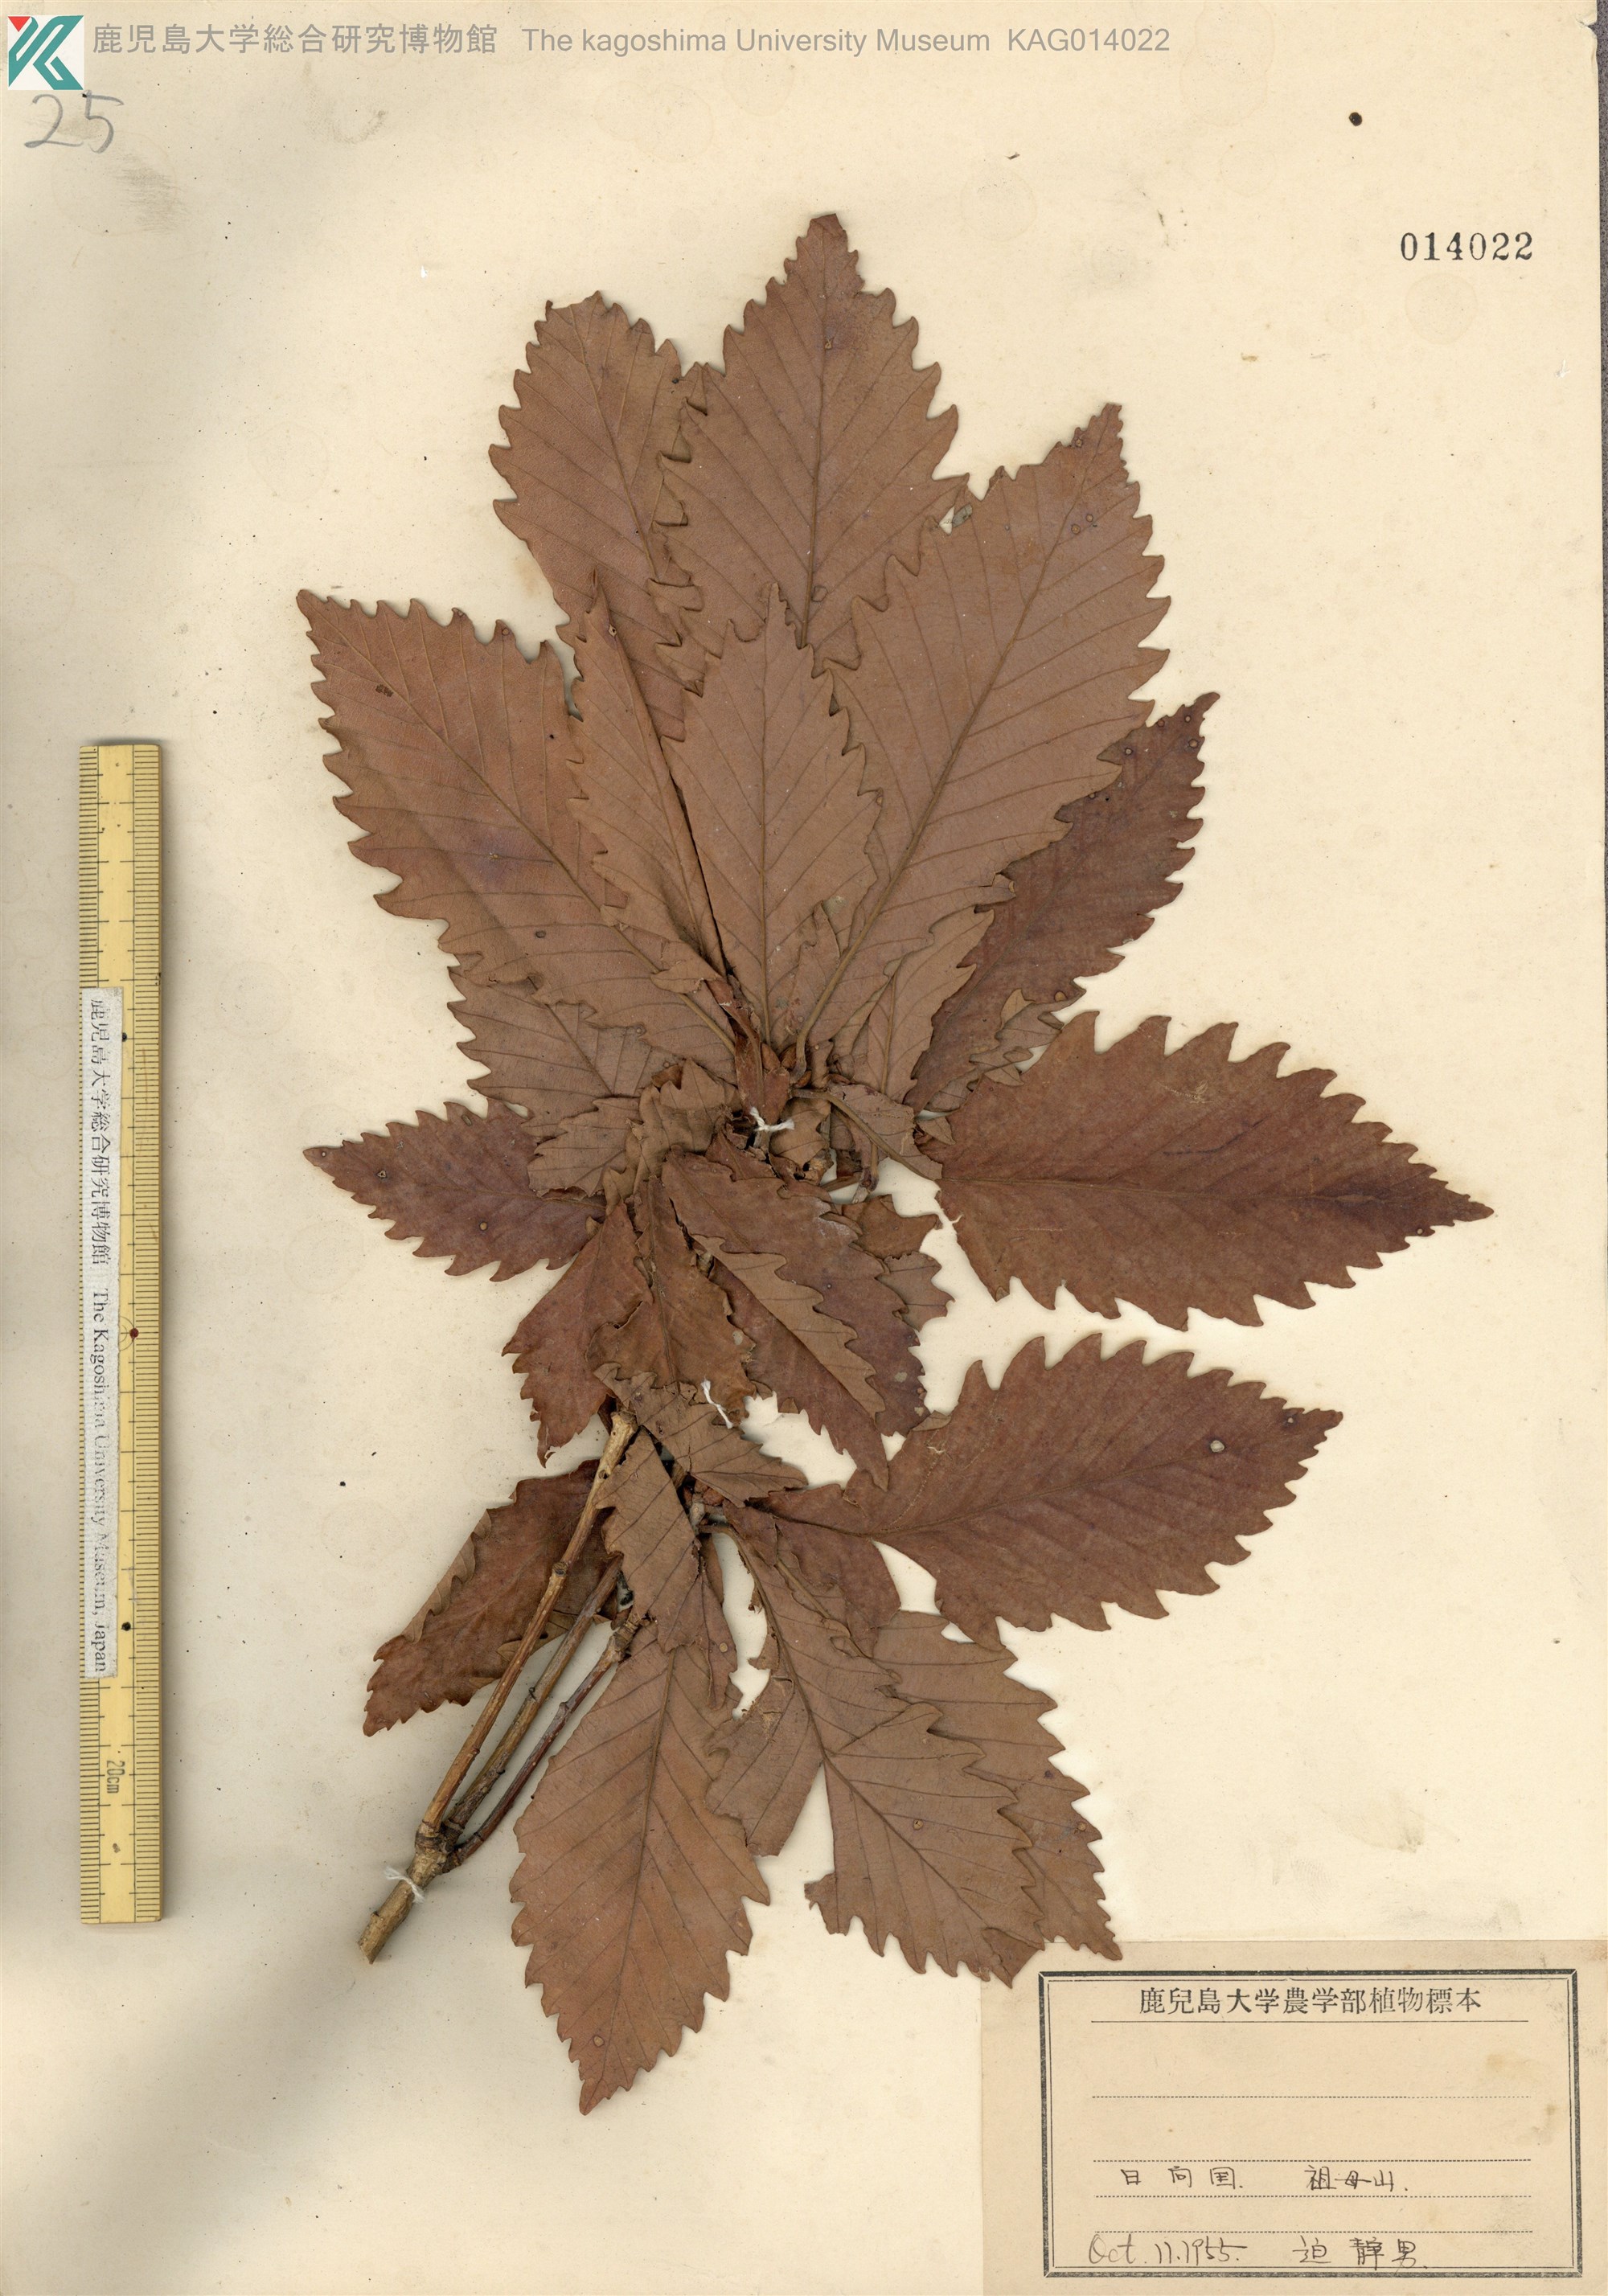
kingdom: Plantae
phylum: Tracheophyta
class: Magnoliopsida
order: Fagales
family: Fagaceae
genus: Quercus
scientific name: Quercus crispula
